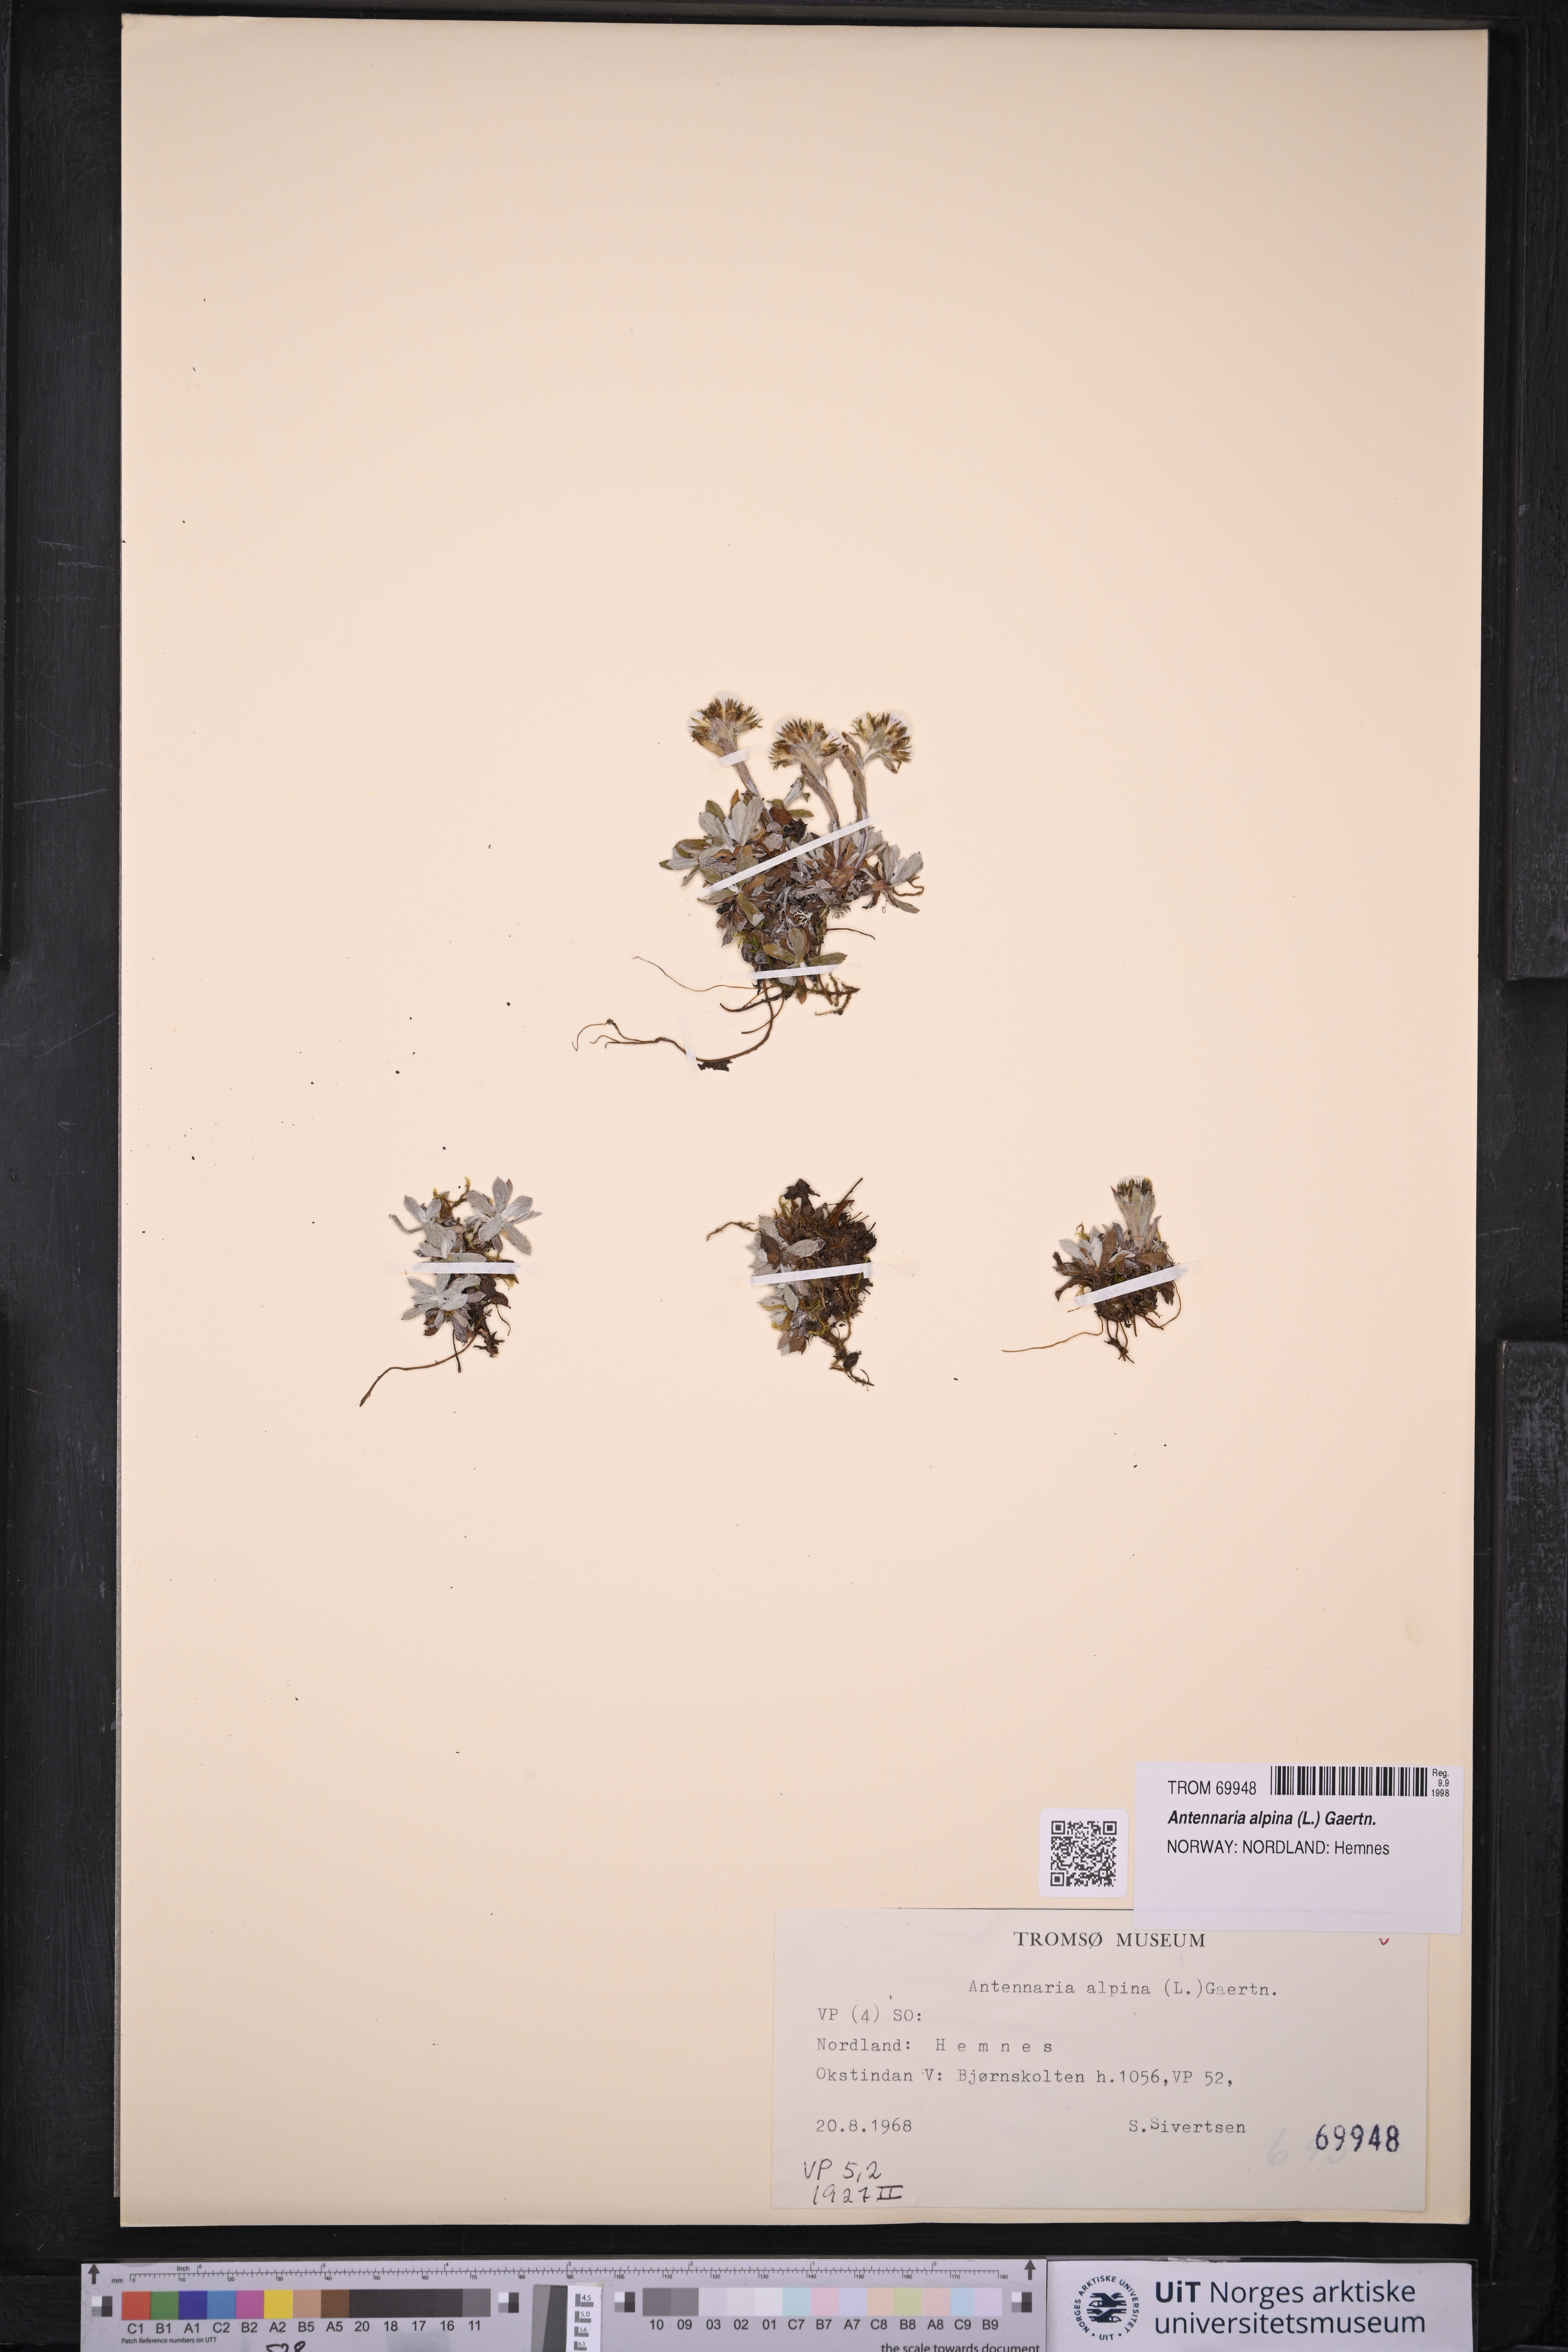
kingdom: Plantae
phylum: Tracheophyta
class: Magnoliopsida
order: Asterales
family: Asteraceae
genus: Antennaria
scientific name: Antennaria alpina
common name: Alpine pussytoes
